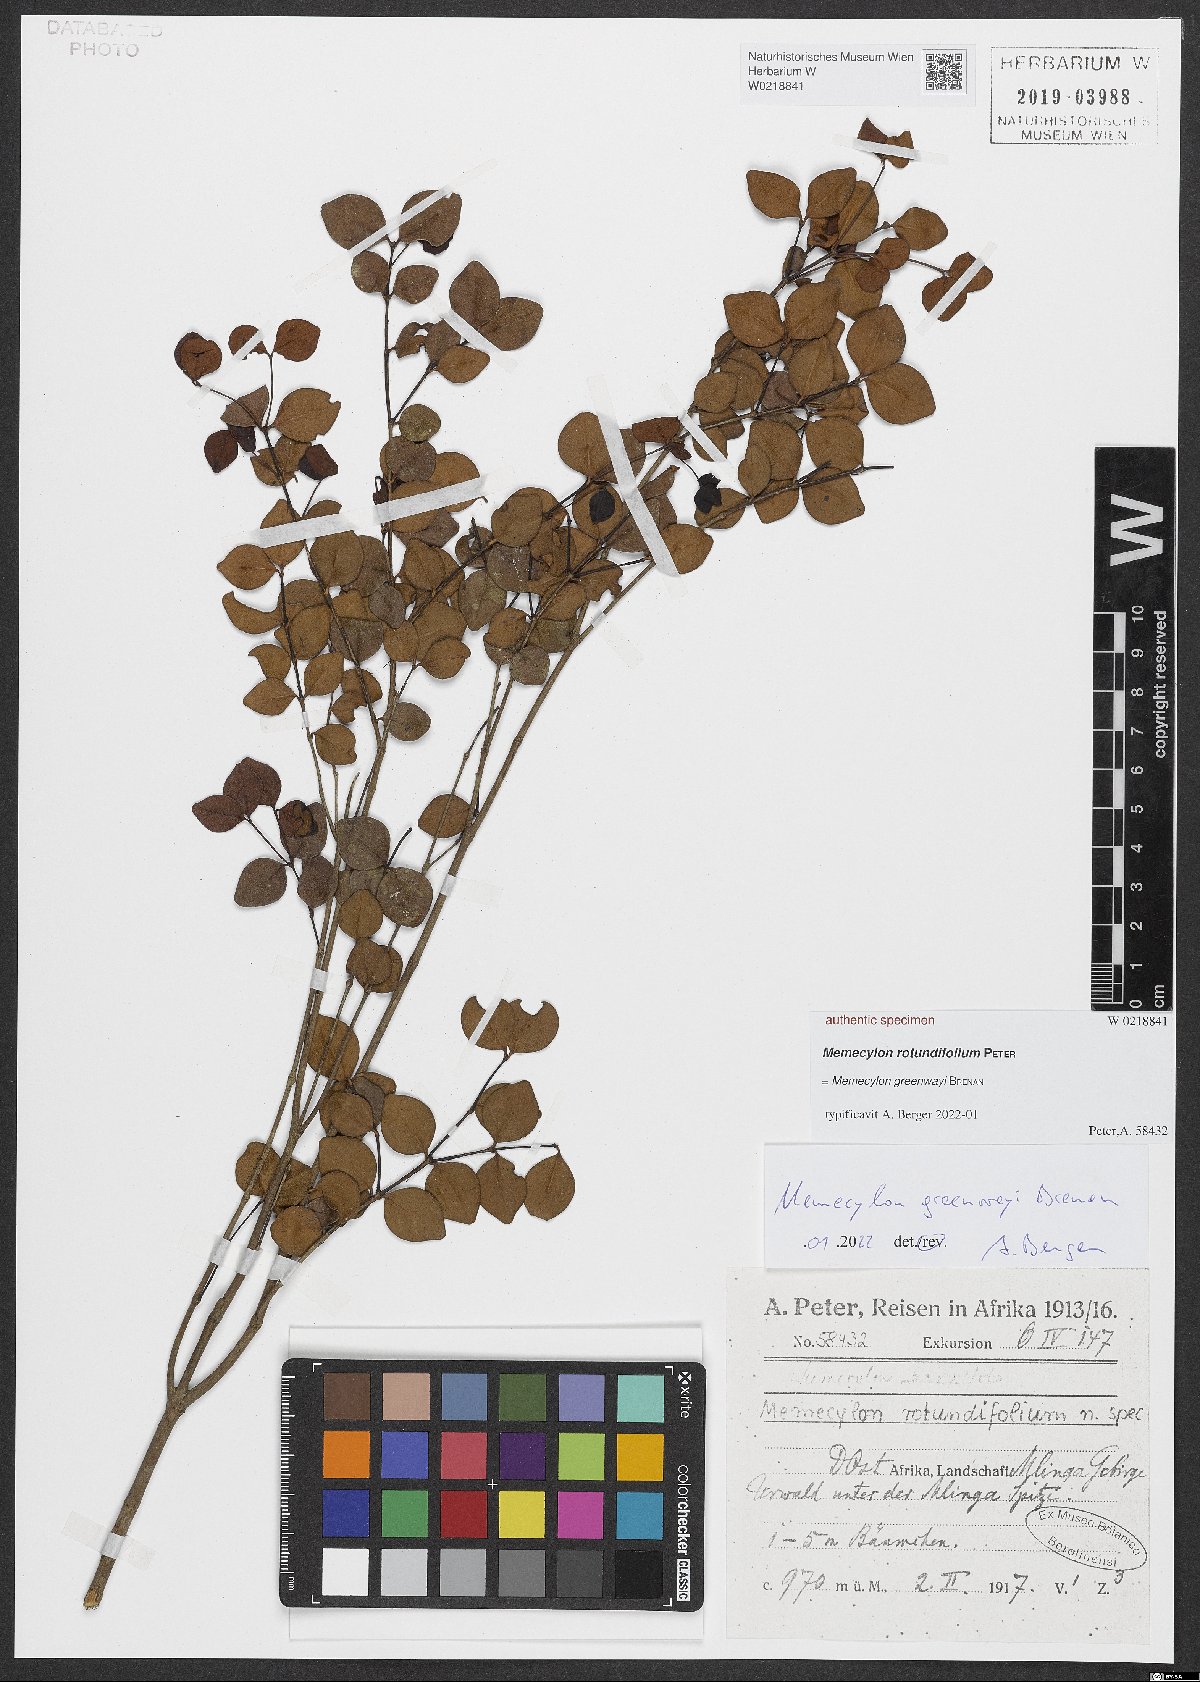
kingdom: Plantae
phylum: Tracheophyta
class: Magnoliopsida
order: Myrtales
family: Melastomataceae
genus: Memecylon
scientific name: Memecylon
